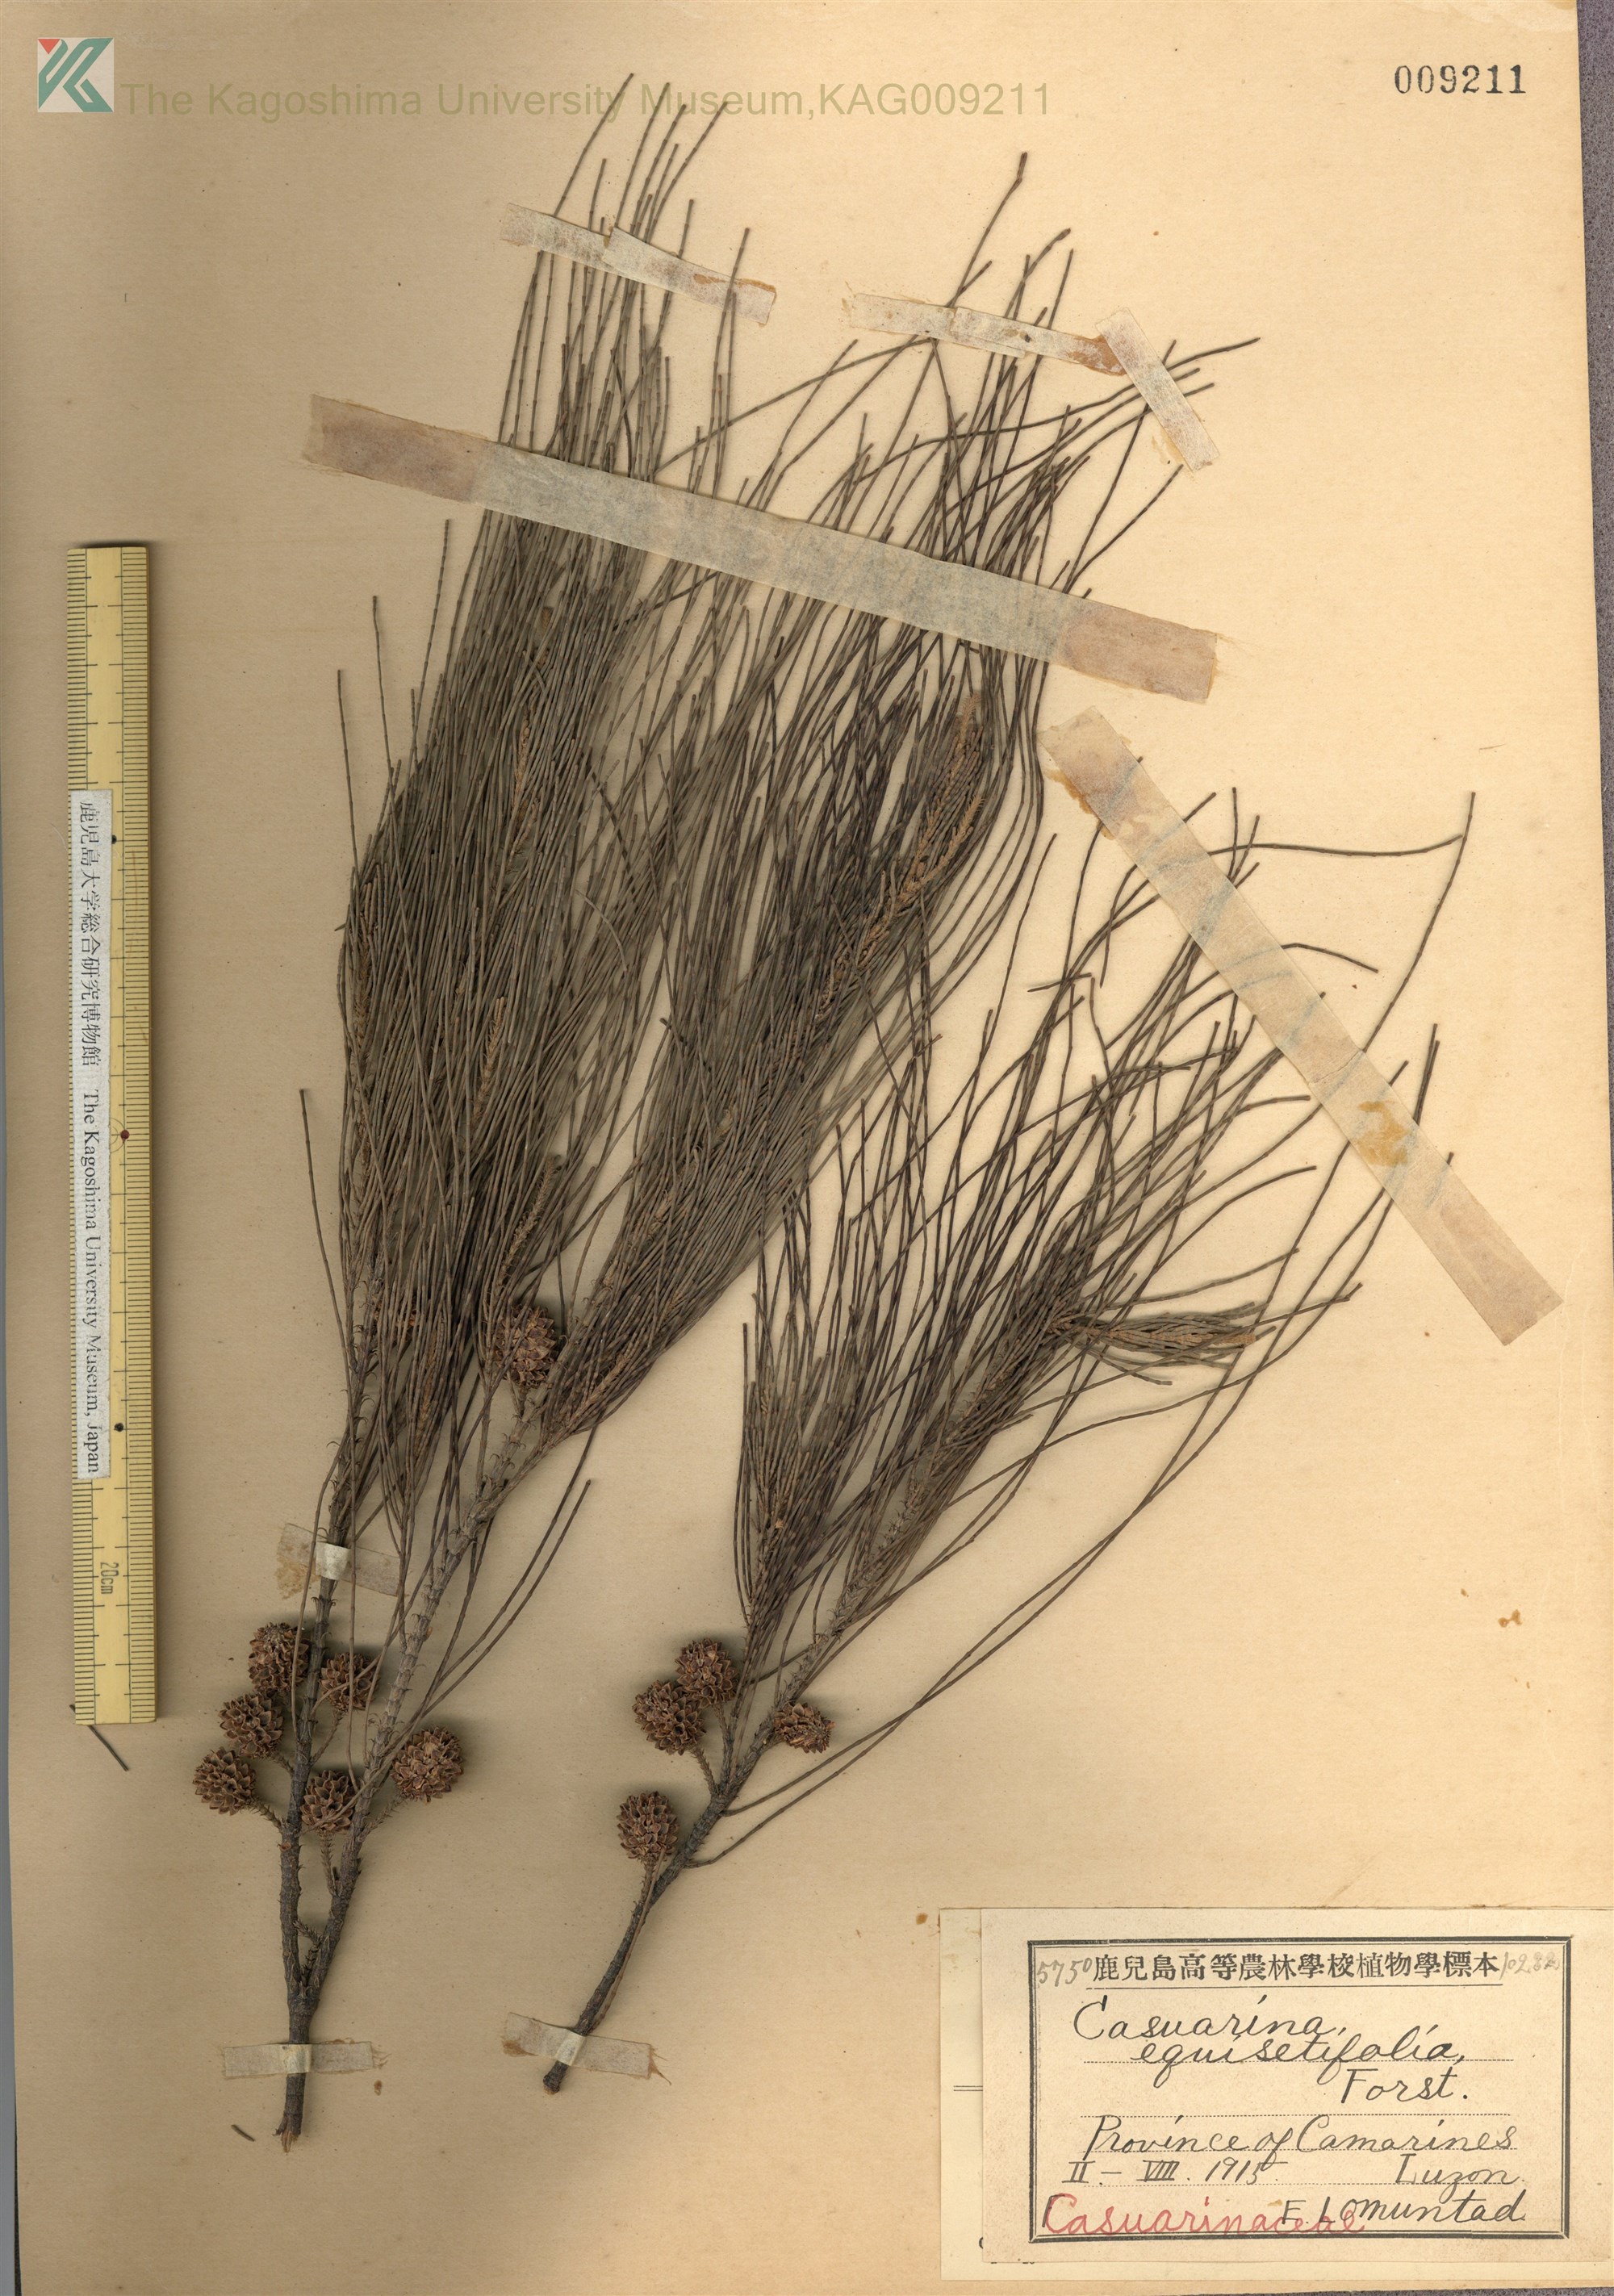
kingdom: Plantae
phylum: Tracheophyta
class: Magnoliopsida
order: Fagales
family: Casuarinaceae
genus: Casuarina
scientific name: Casuarina equisetifolia
